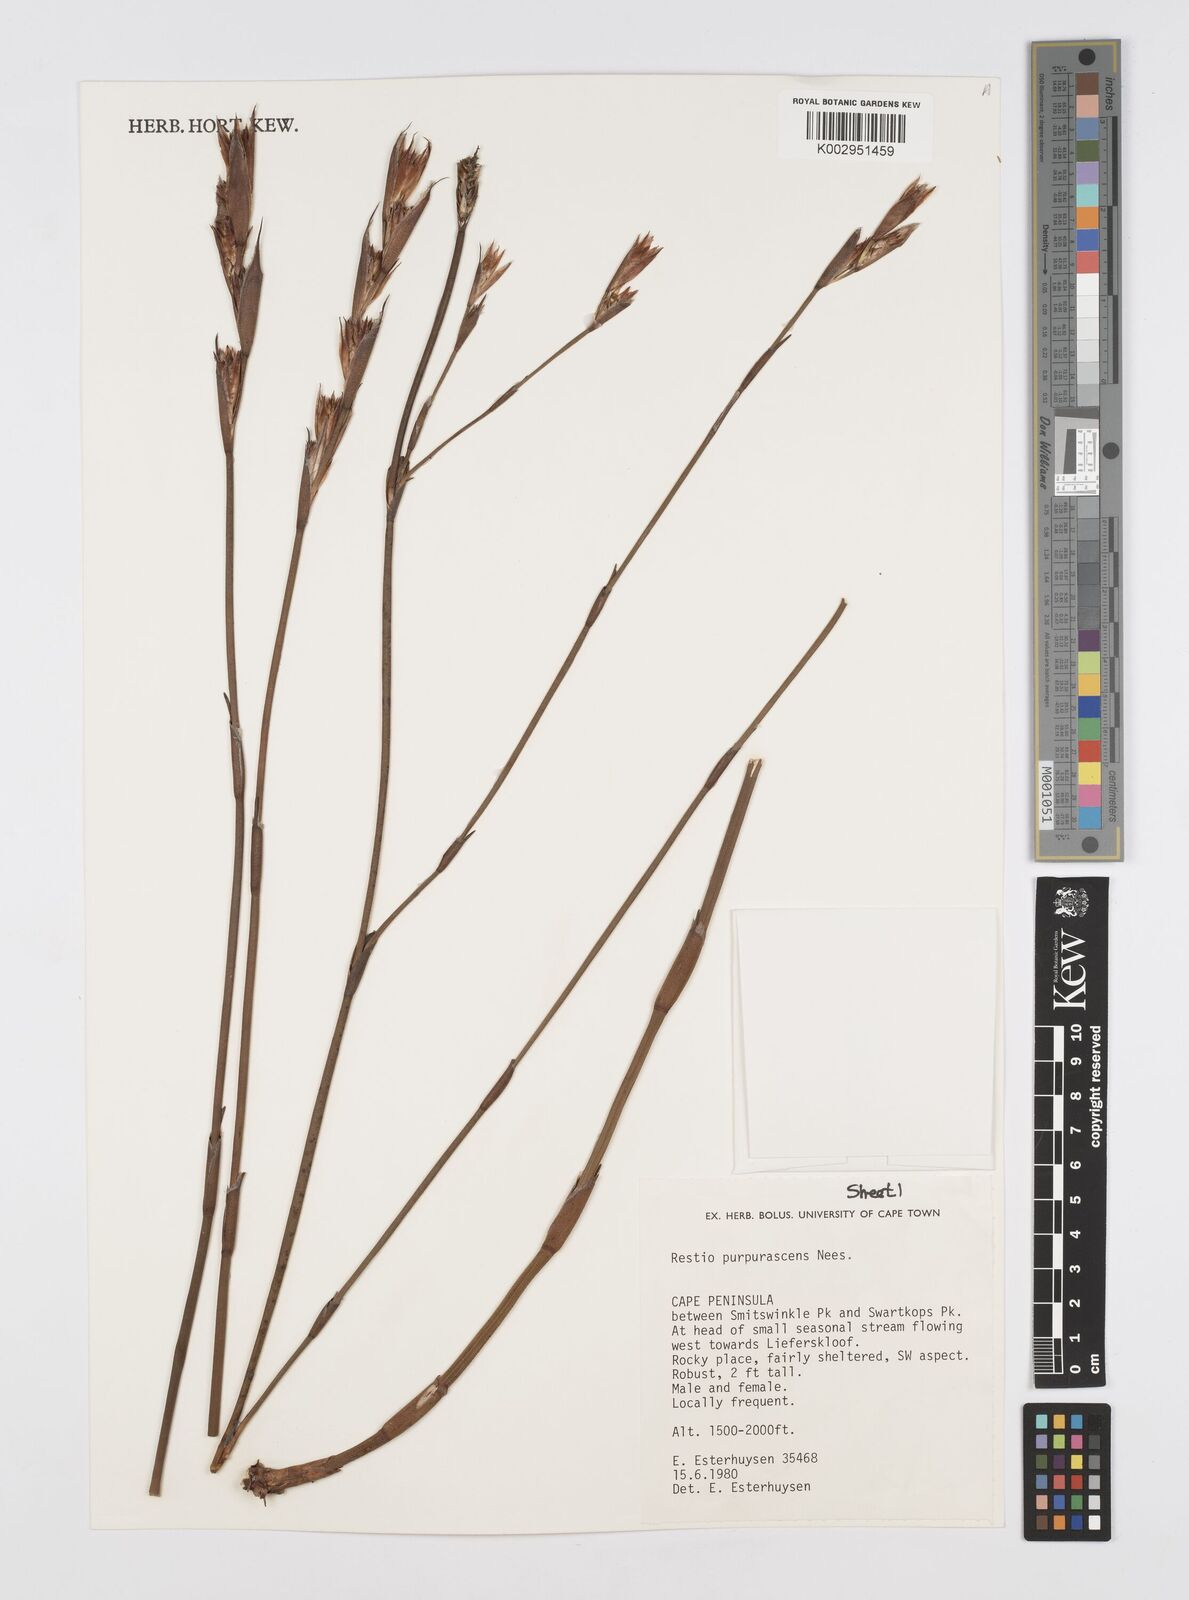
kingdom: Plantae
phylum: Tracheophyta
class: Liliopsida
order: Poales
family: Restionaceae
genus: Restio
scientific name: Restio purpurascens
